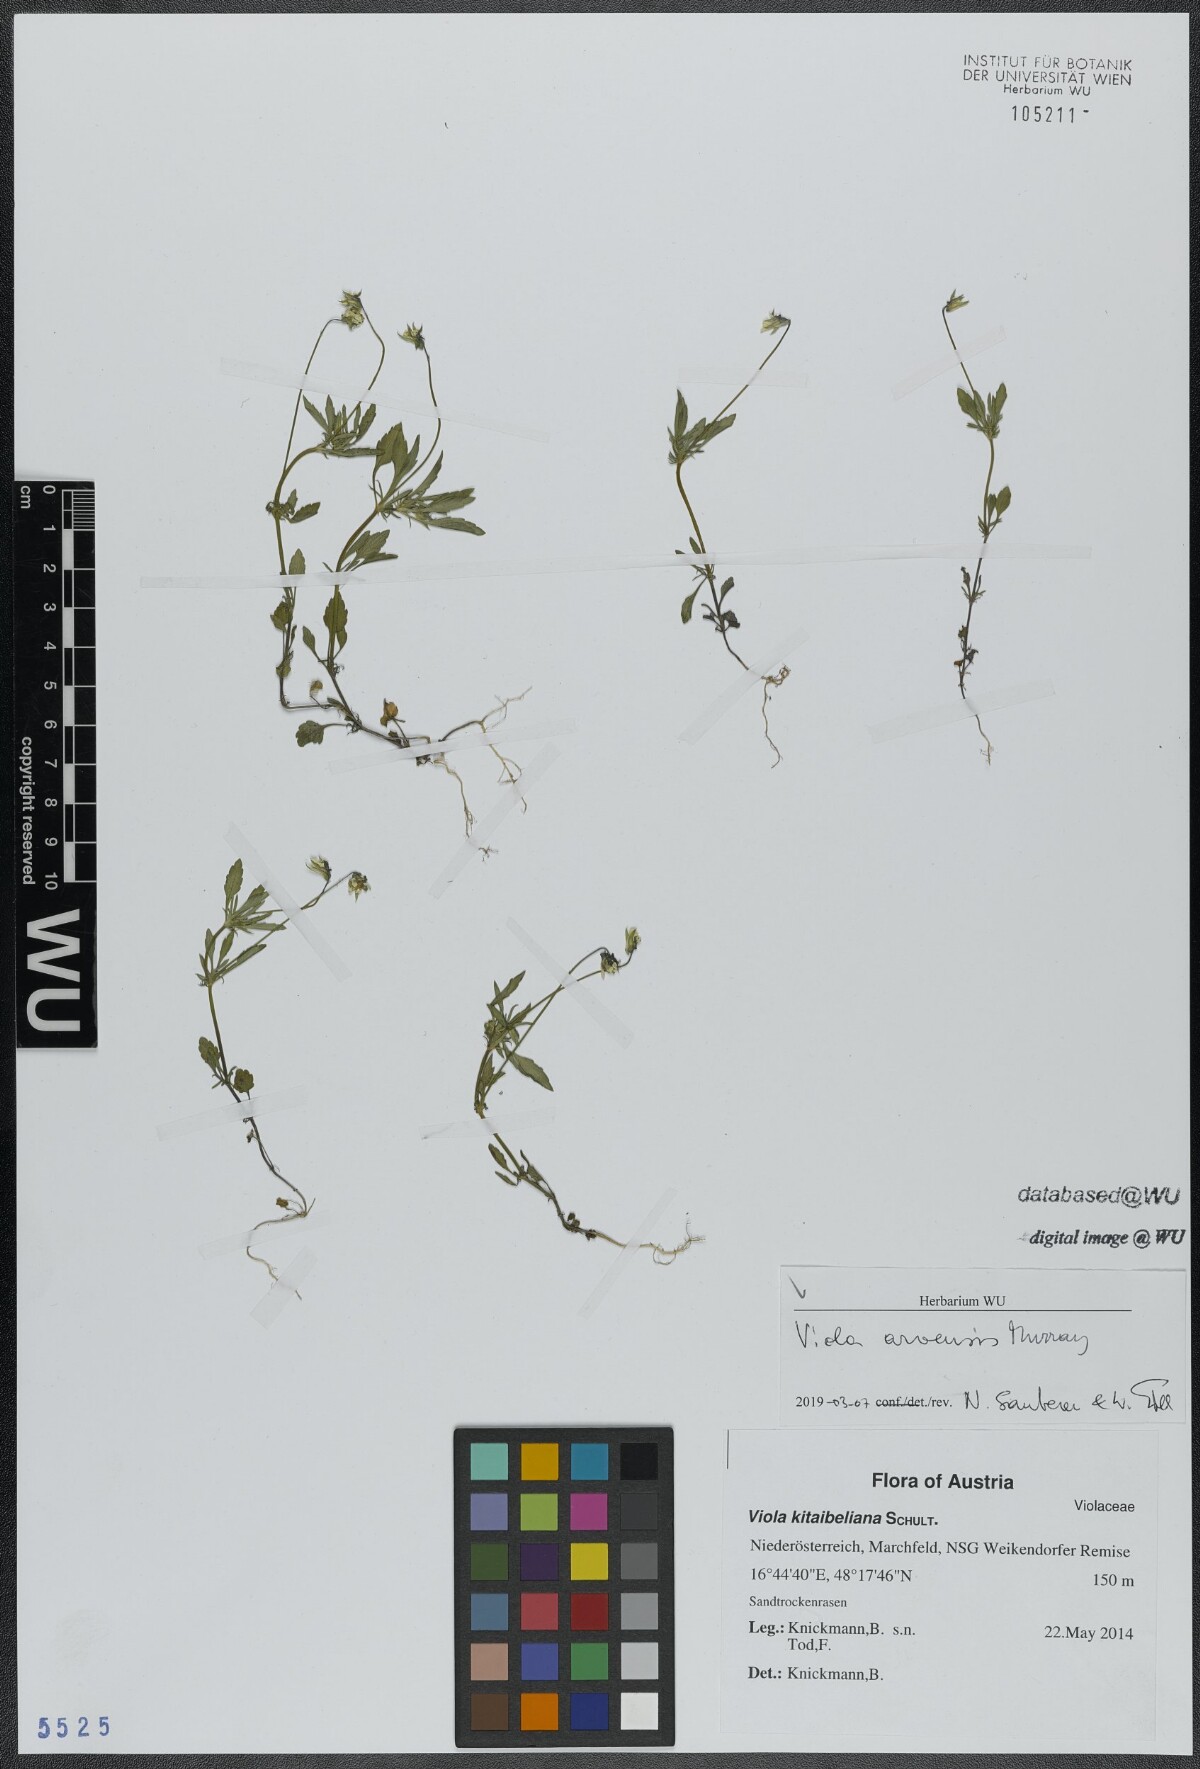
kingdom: Plantae
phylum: Tracheophyta
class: Magnoliopsida
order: Malpighiales
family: Violaceae
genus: Viola
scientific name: Viola arvensis
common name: Field pansy
